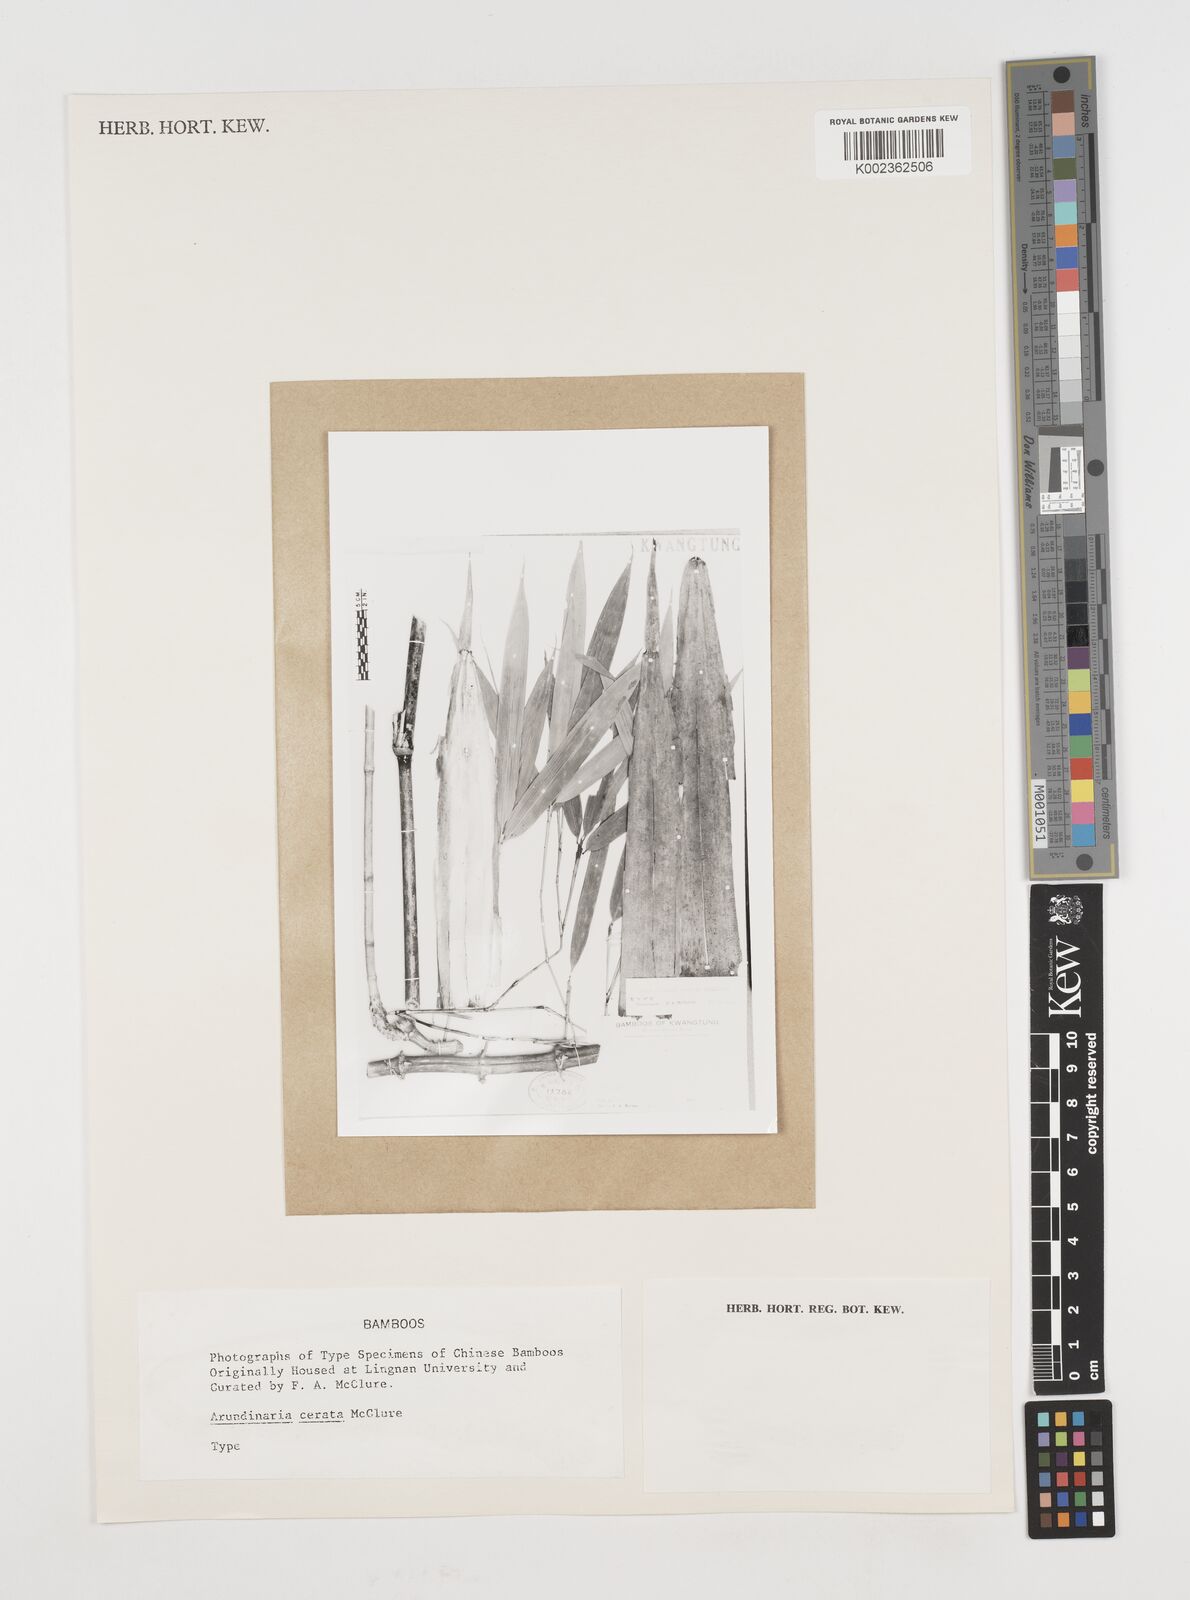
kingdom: Plantae
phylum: Tracheophyta
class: Liliopsida
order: Poales
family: Poaceae
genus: Pseudosasa
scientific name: Pseudosasa
